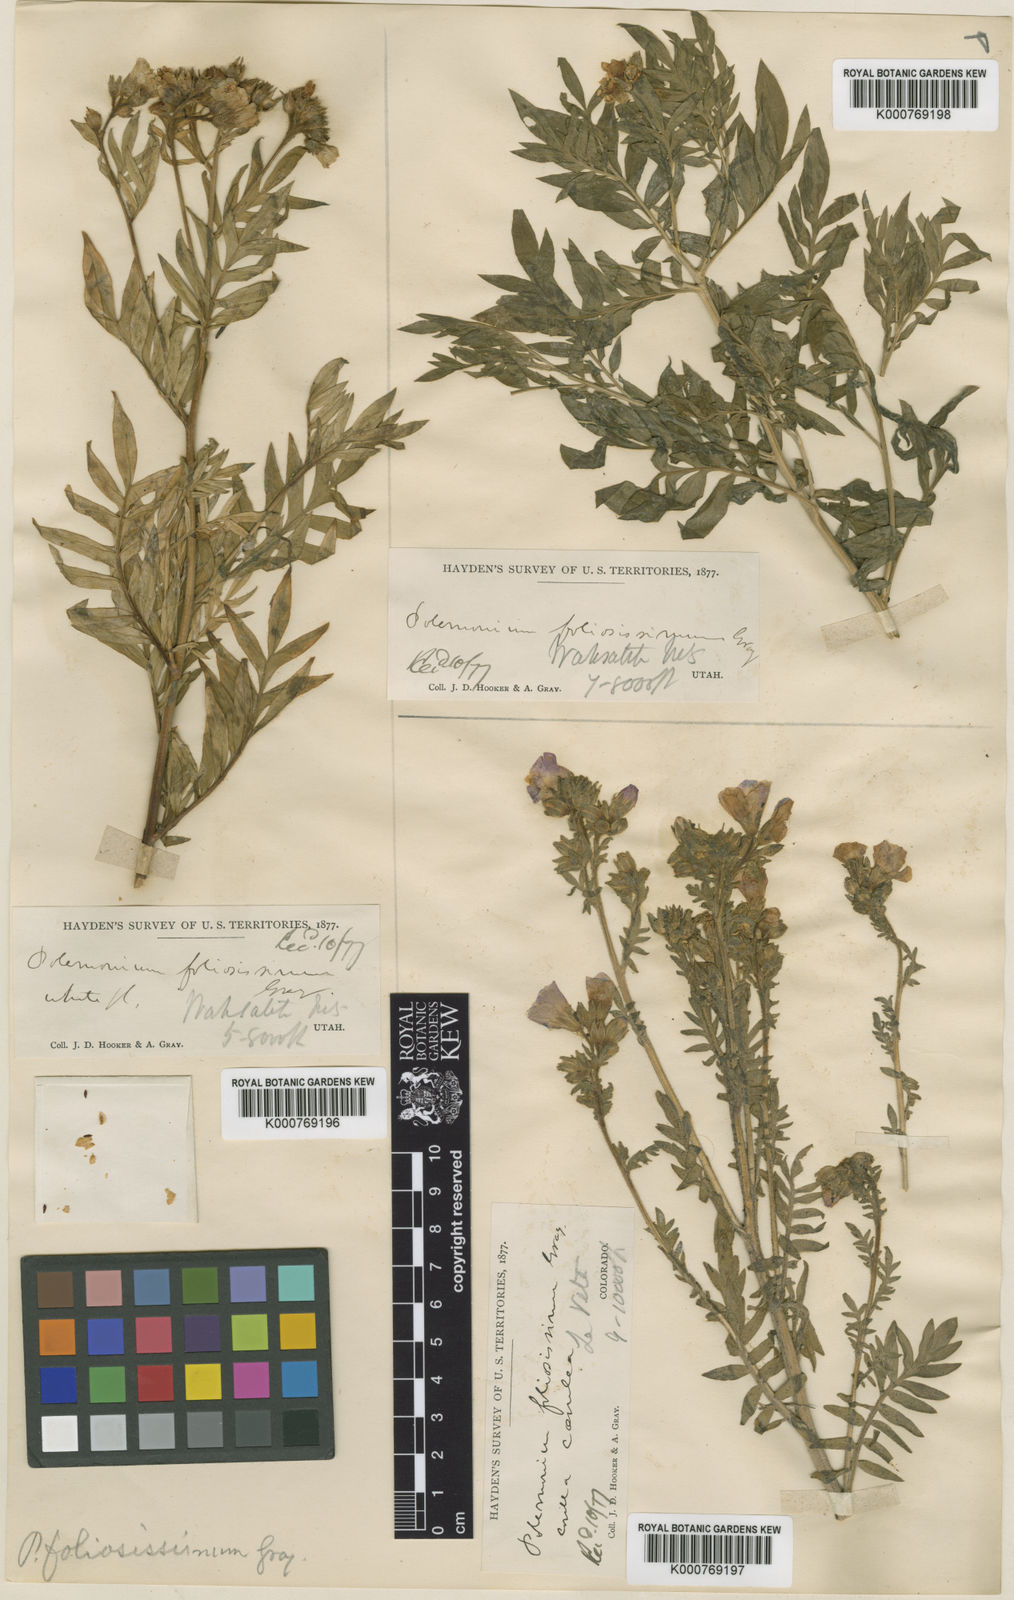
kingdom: Plantae
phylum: Tracheophyta
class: Magnoliopsida
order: Ericales
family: Polemoniaceae
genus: Polemonium
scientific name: Polemonium foliosissimum
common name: Leafy jacob's-ladder
